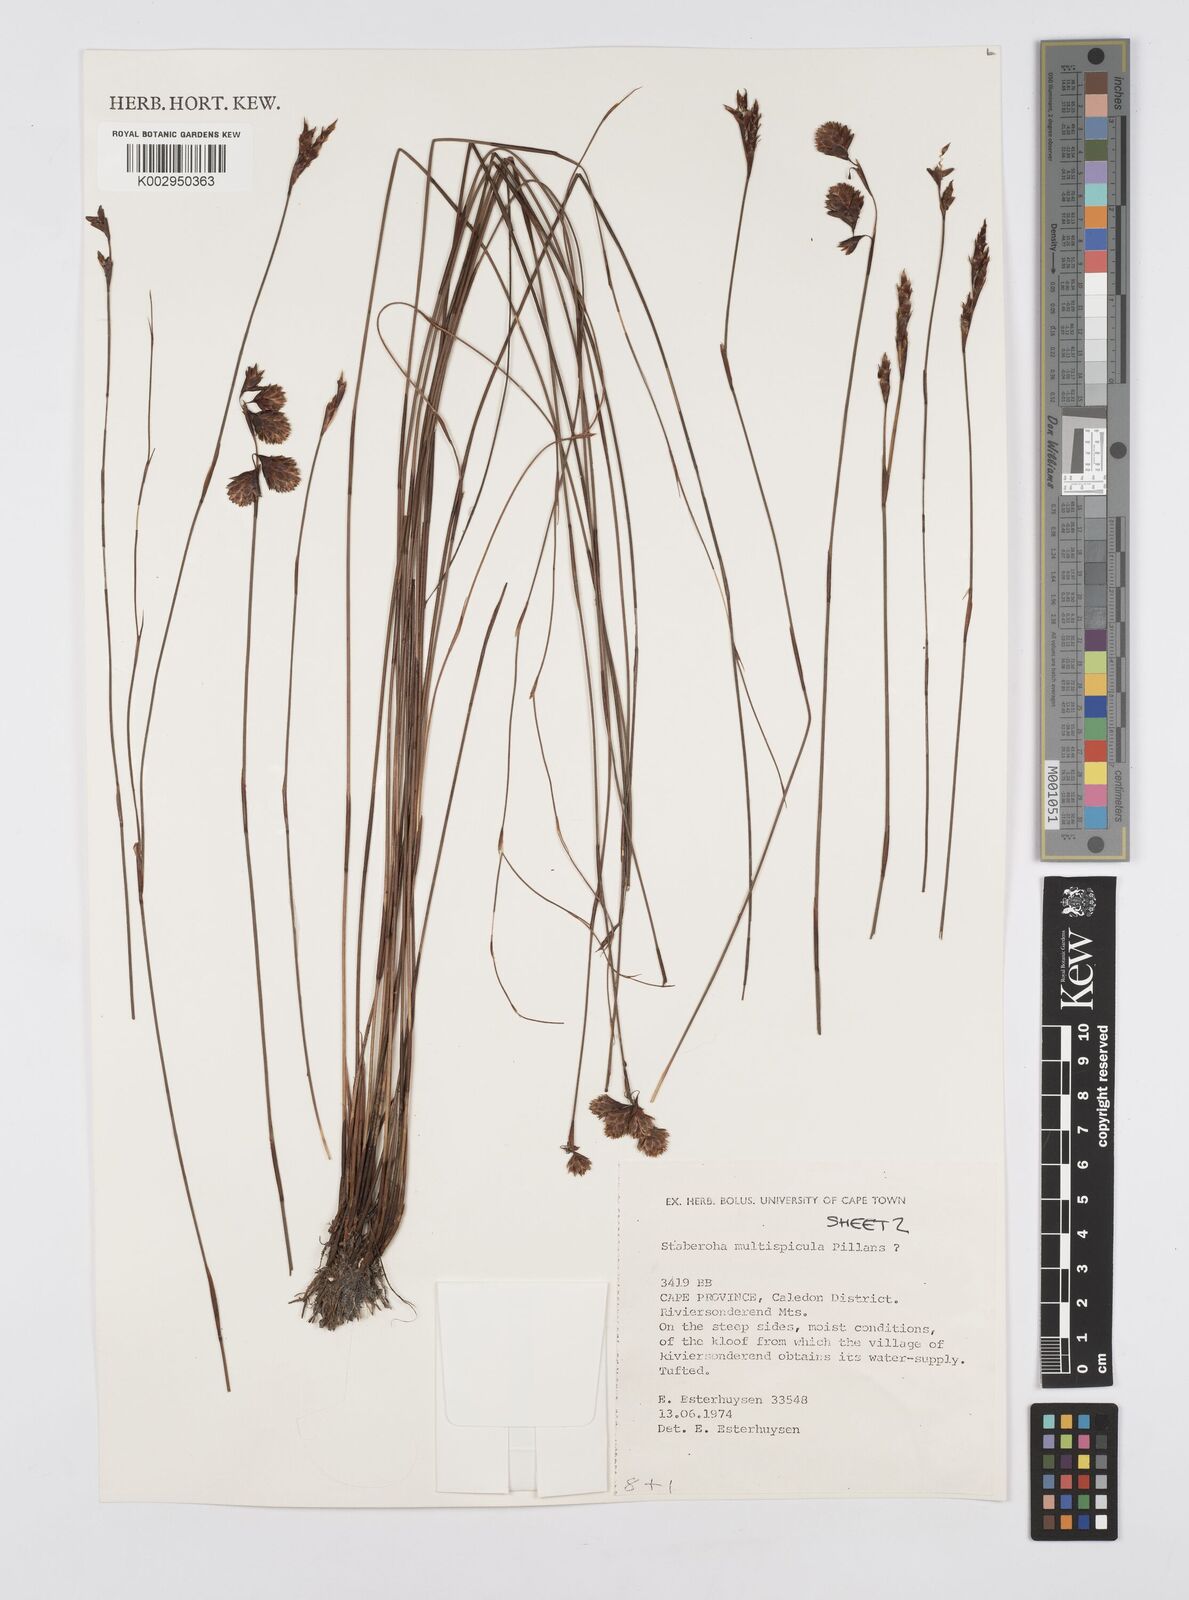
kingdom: Plantae
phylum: Tracheophyta
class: Liliopsida
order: Poales
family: Restionaceae
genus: Staberoha
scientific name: Staberoha multispicula
